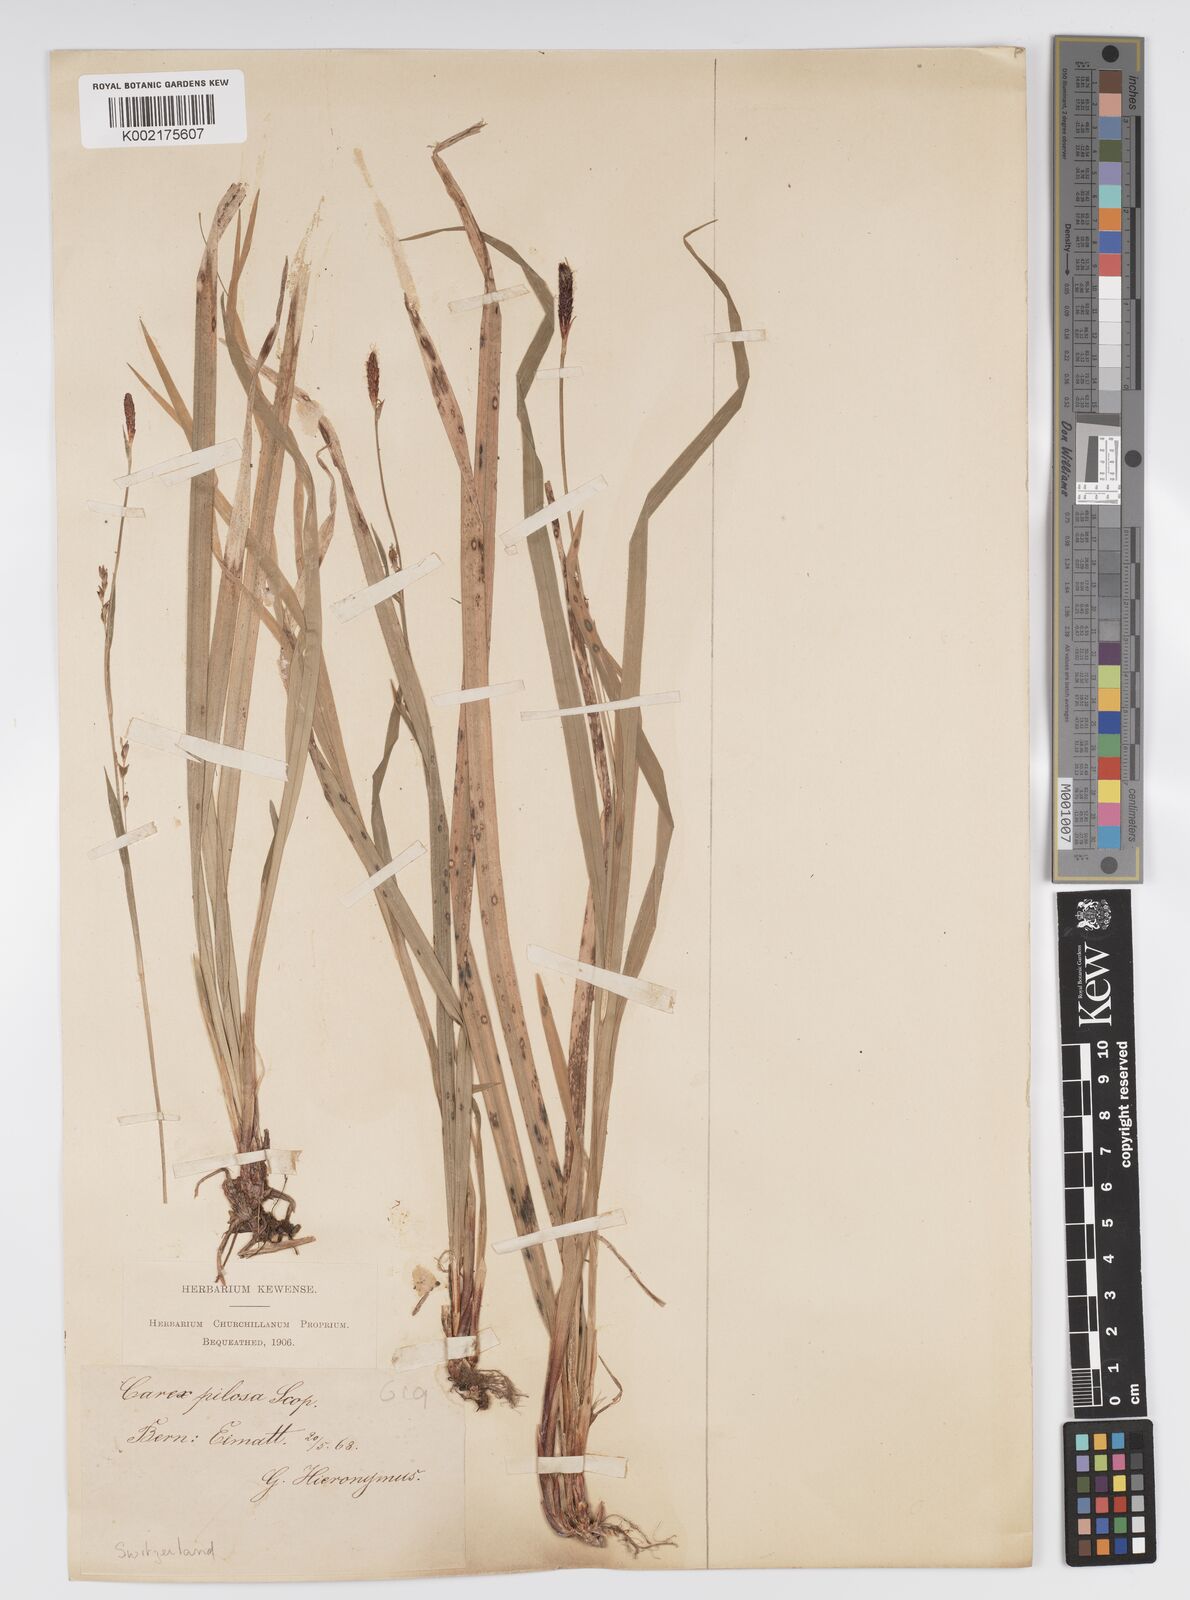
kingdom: Plantae
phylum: Tracheophyta
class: Liliopsida
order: Poales
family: Cyperaceae
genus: Carex
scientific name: Carex pilosa
